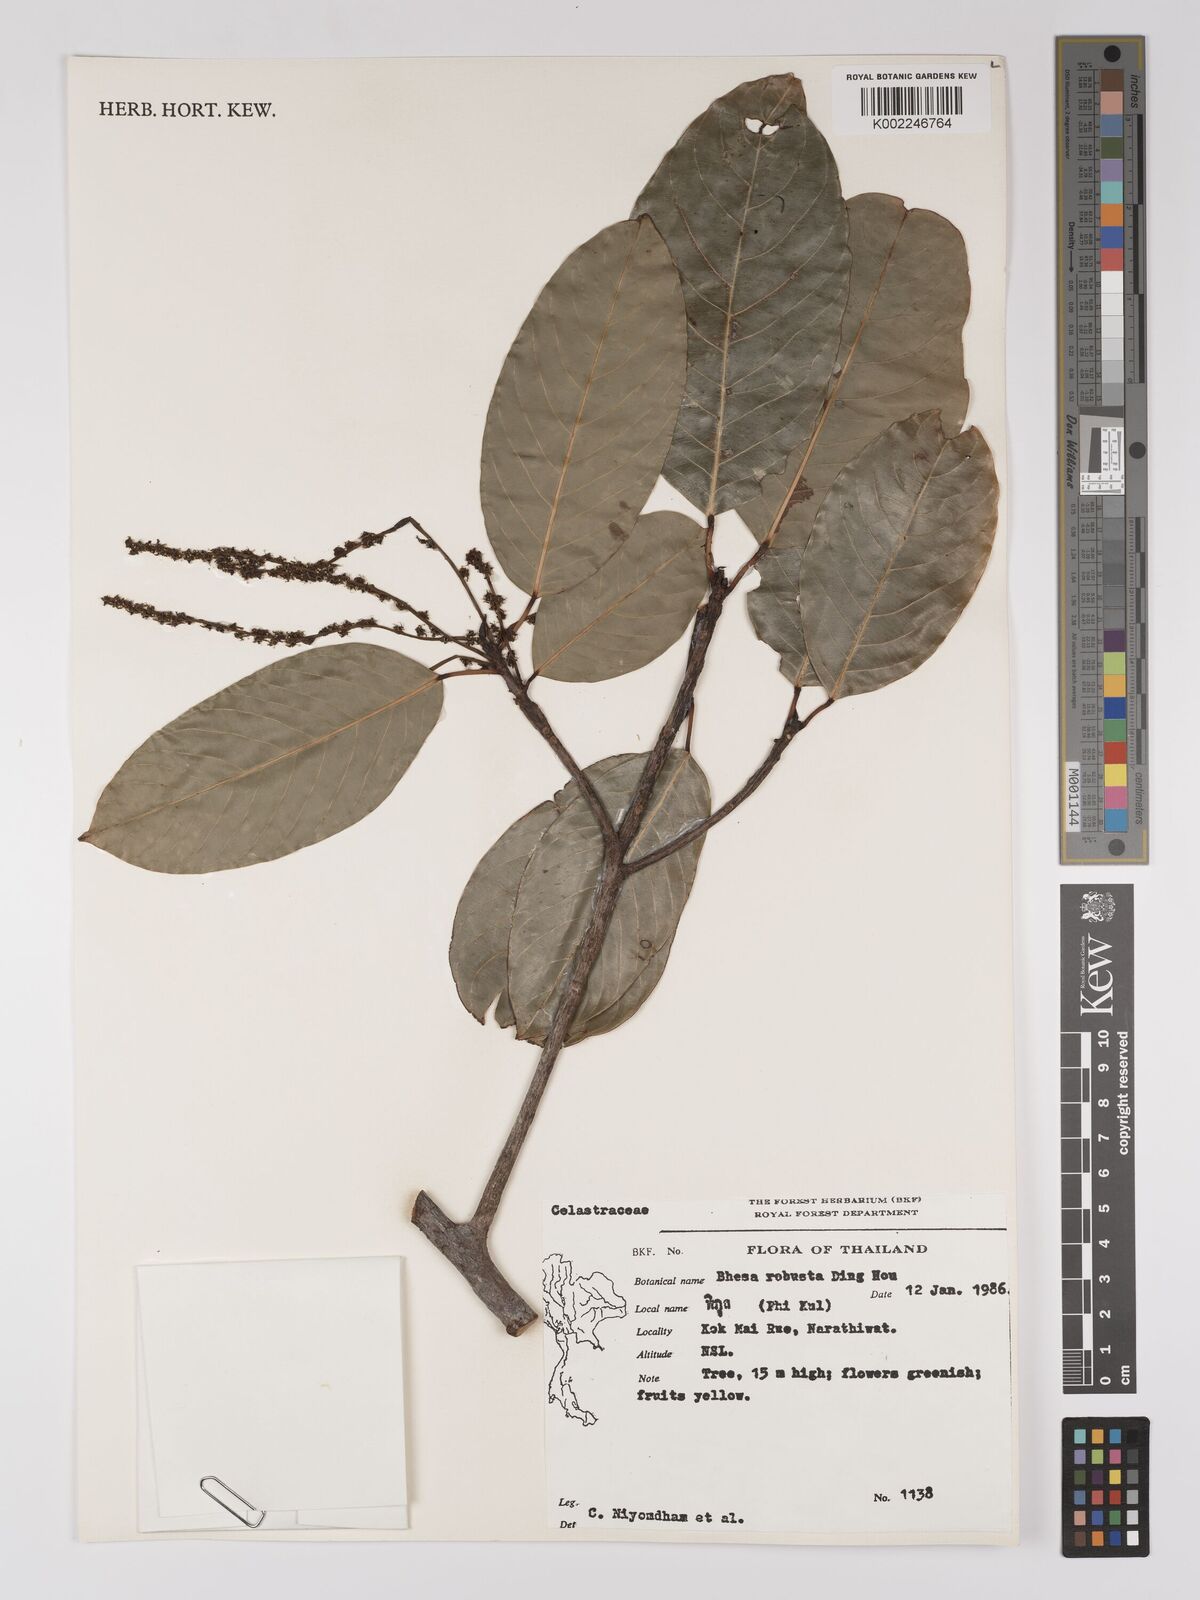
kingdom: Plantae
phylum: Tracheophyta
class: Magnoliopsida
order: Malpighiales
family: Centroplacaceae
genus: Bhesa
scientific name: Bhesa robusta
